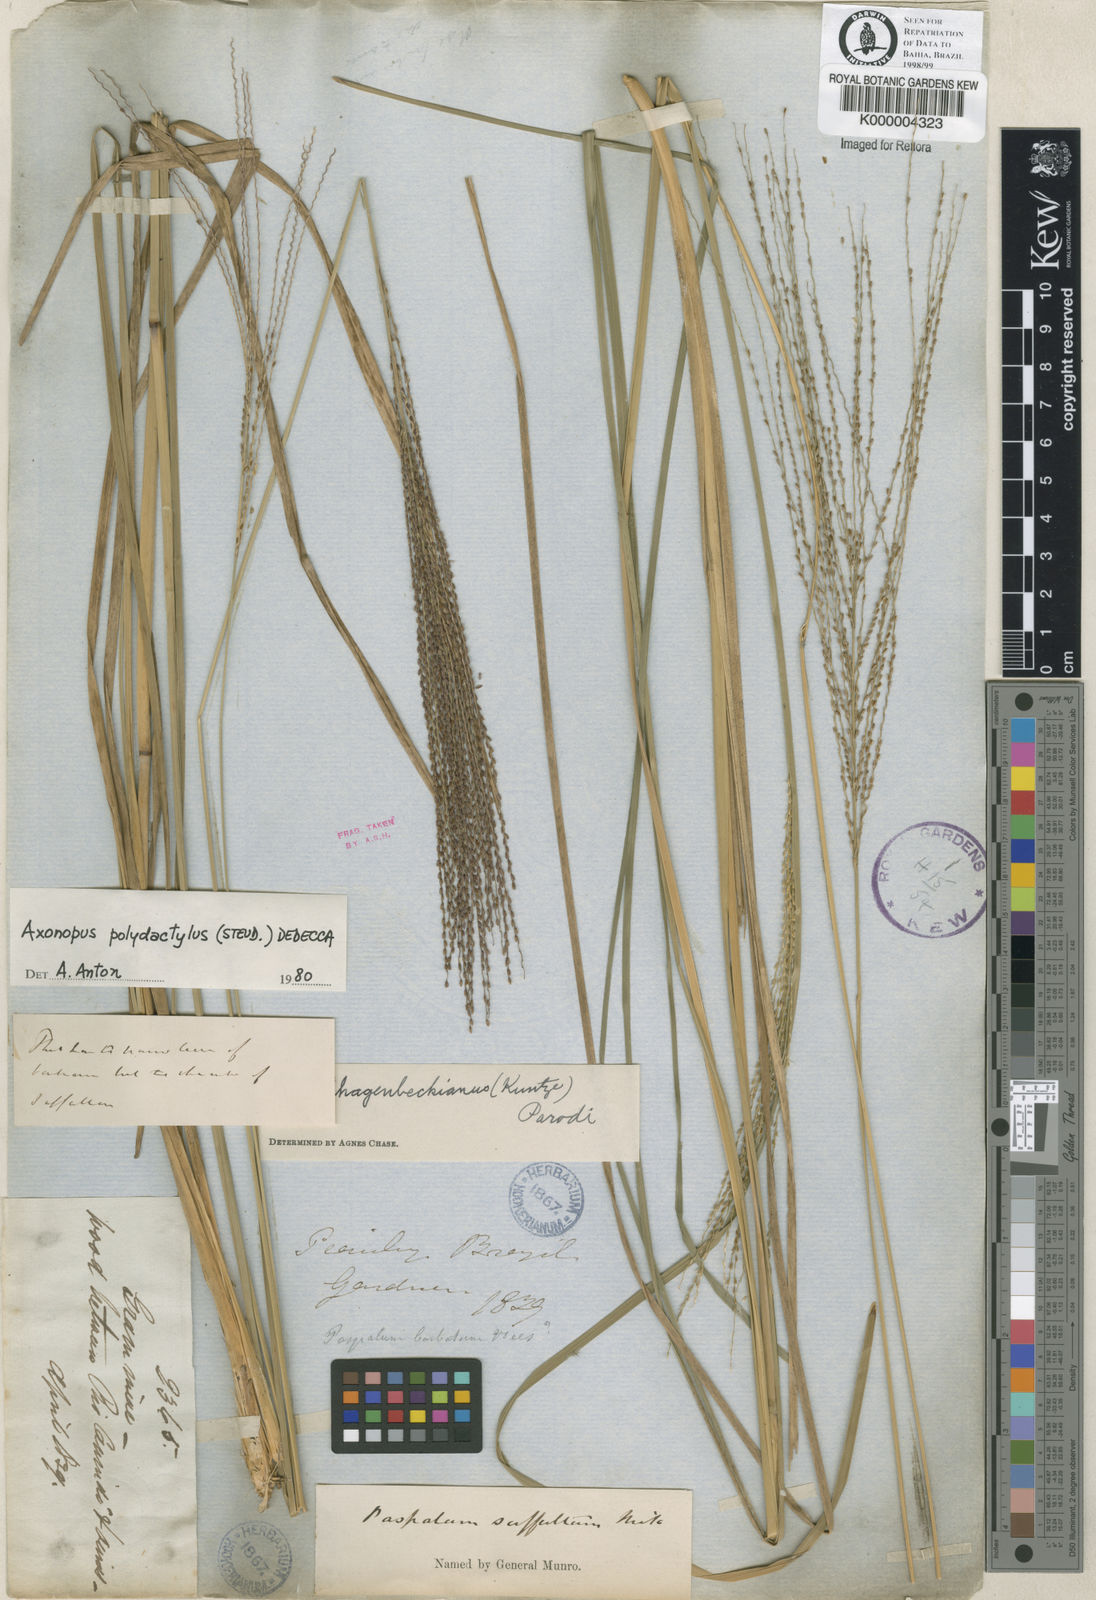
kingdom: Plantae
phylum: Tracheophyta
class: Liliopsida
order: Poales
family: Poaceae
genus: Axonopus
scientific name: Axonopus polydactylus
